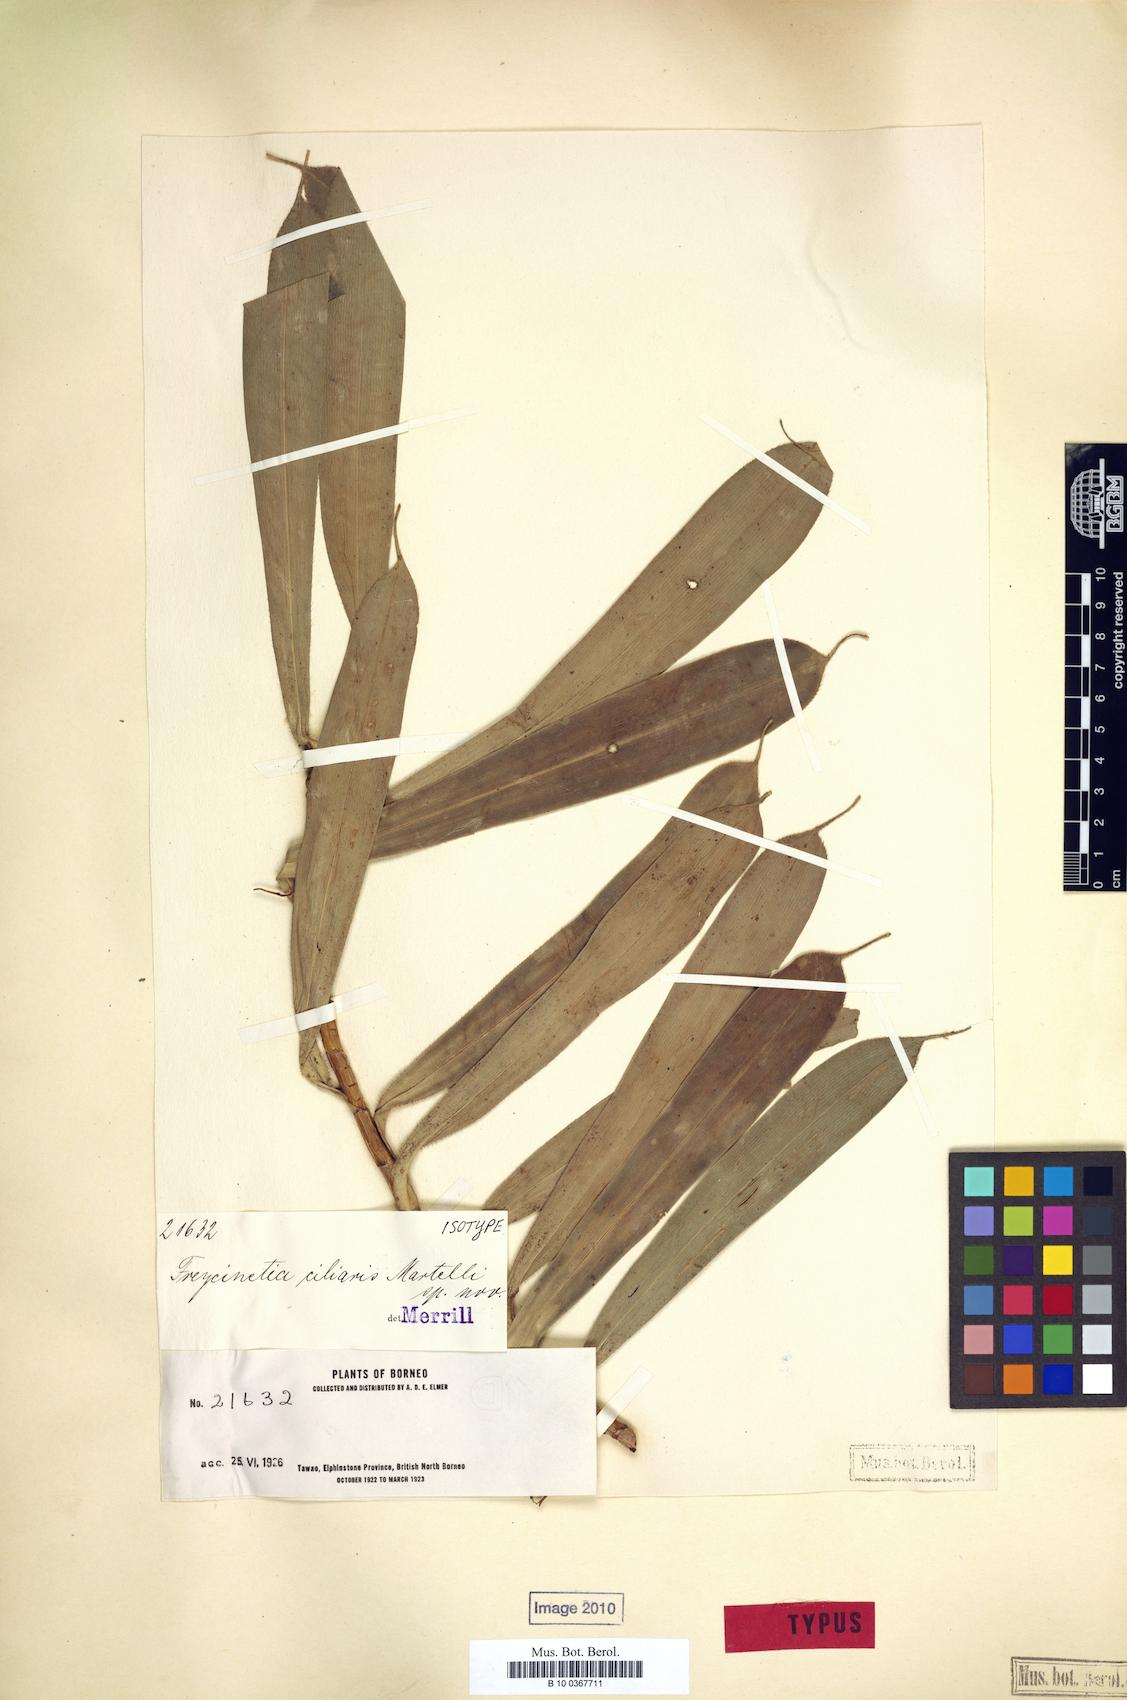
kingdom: Plantae
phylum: Tracheophyta
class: Liliopsida
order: Pandanales
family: Pandanaceae
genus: Freycinetia
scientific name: Freycinetia ciliaris
